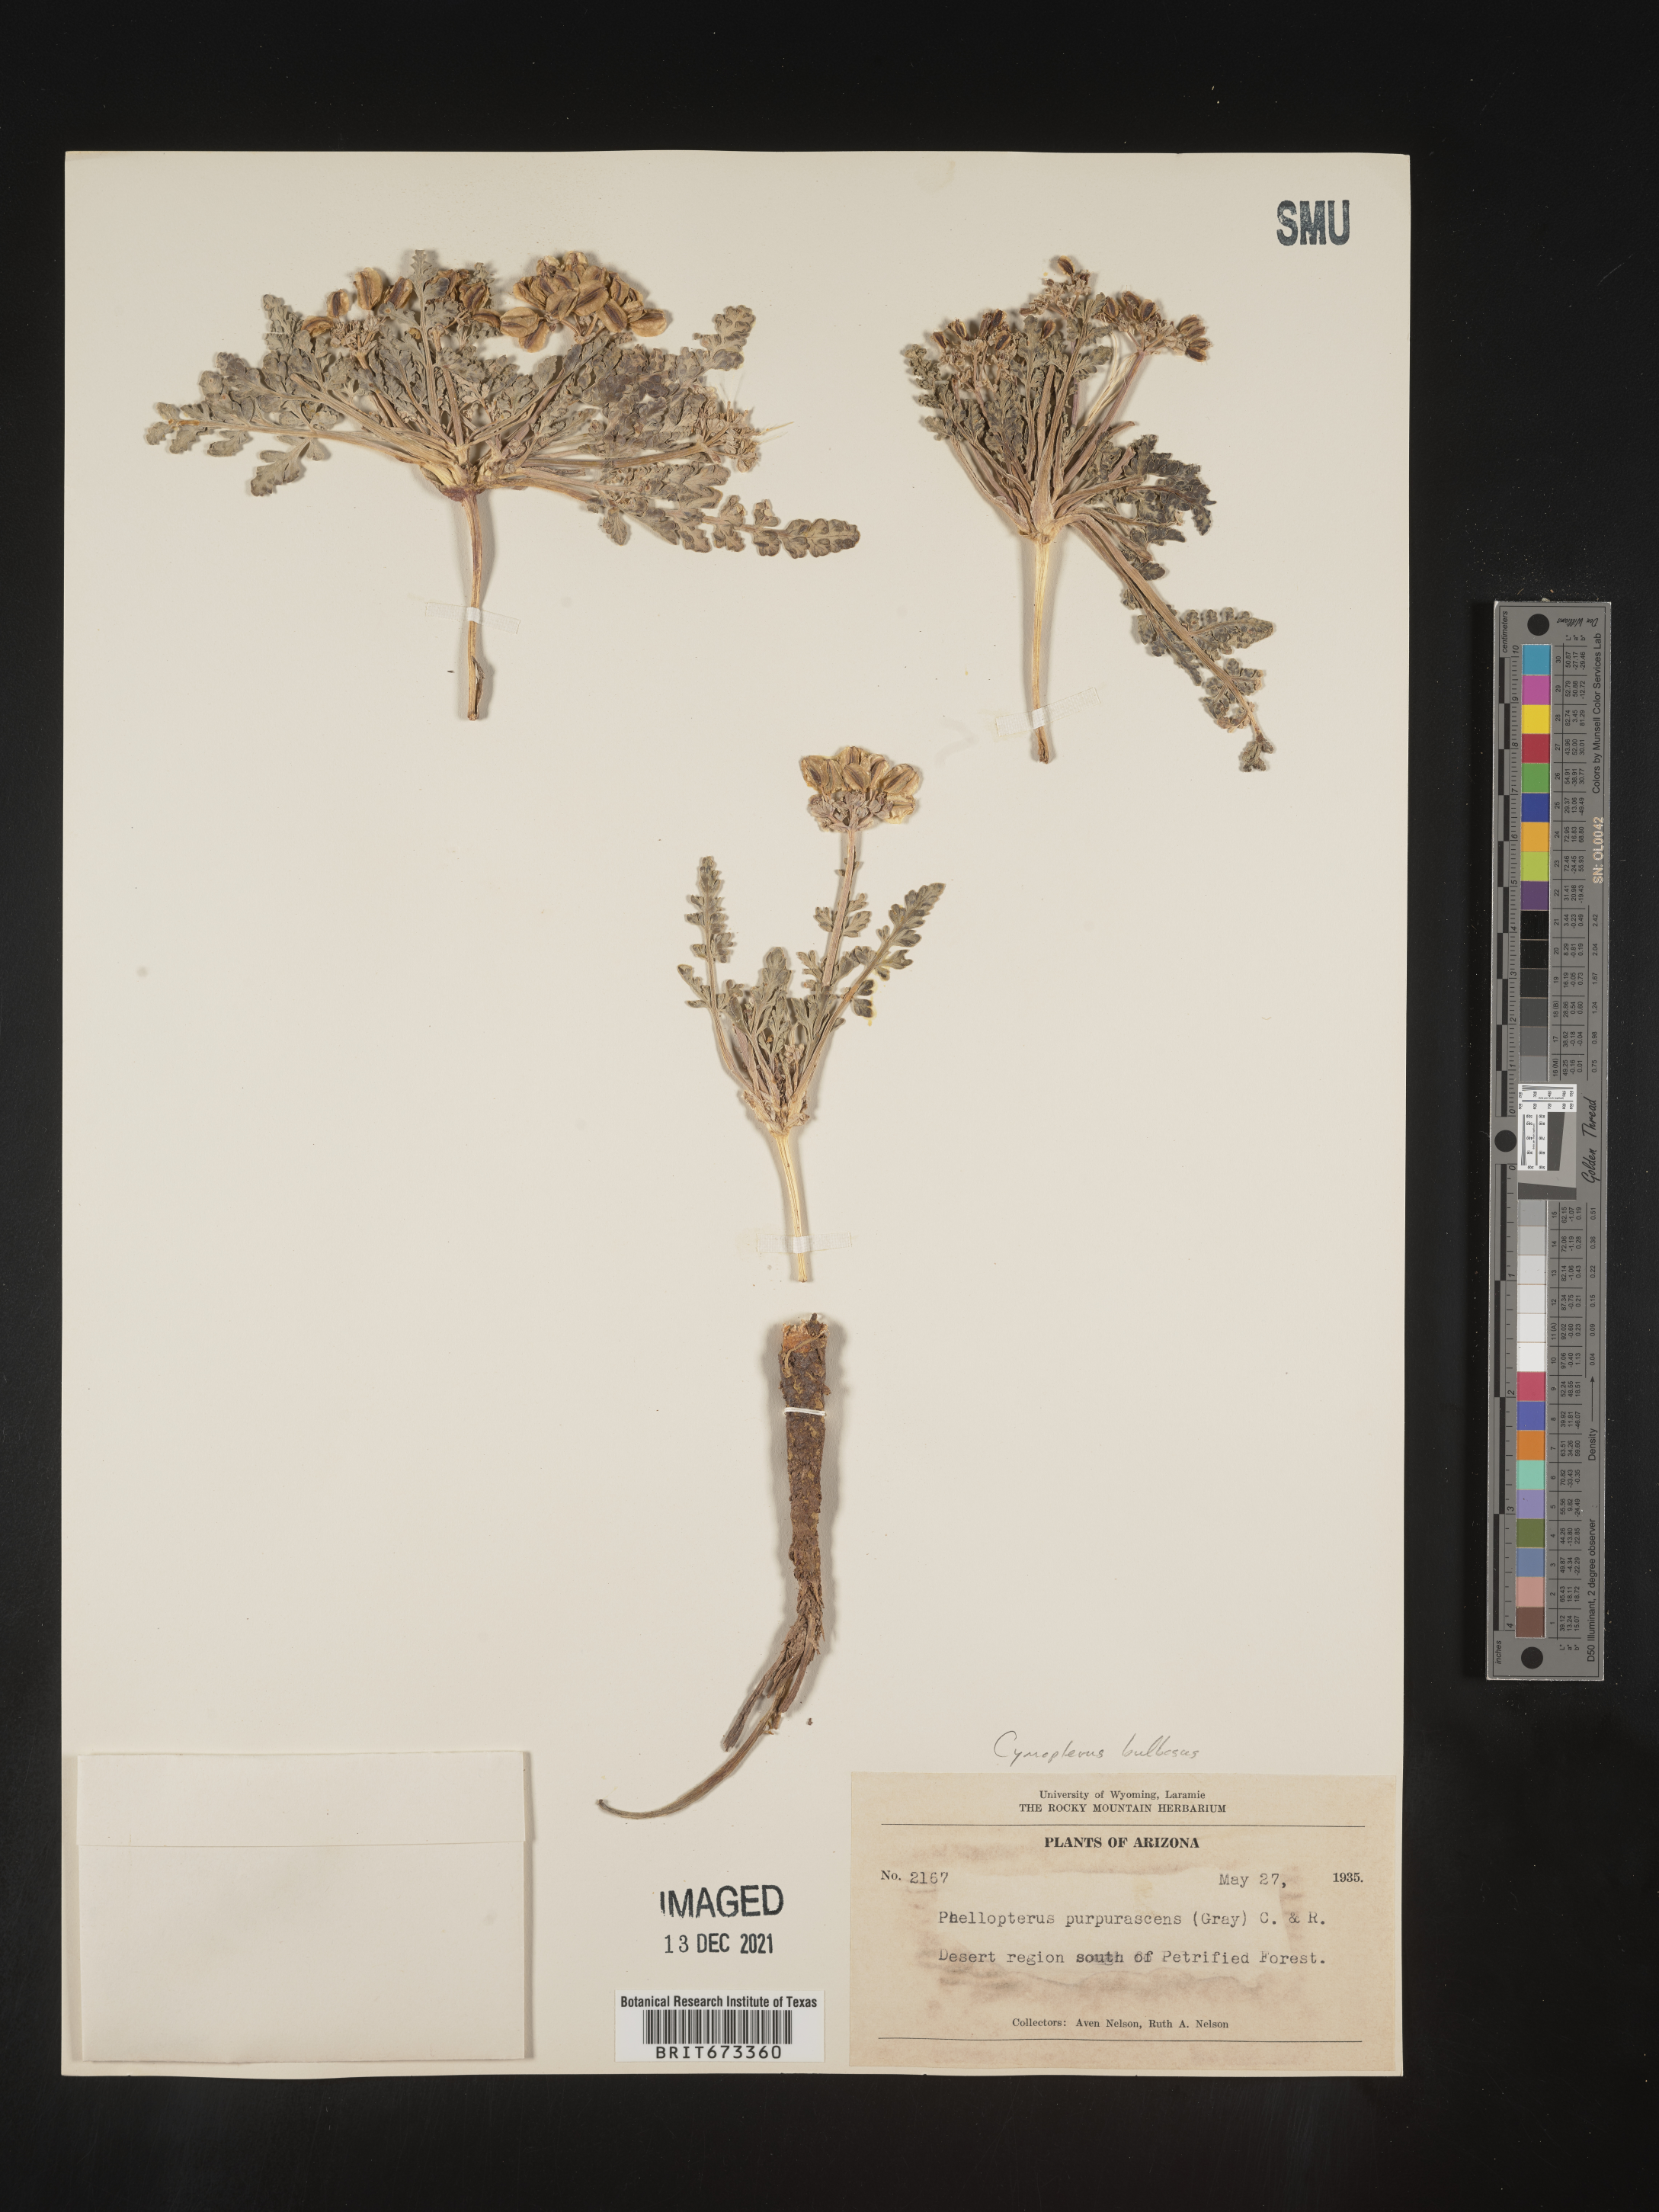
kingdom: Plantae
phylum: Tracheophyta
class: Magnoliopsida
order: Apiales
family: Apiaceae
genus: Vesper
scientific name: Vesper bulbosus
